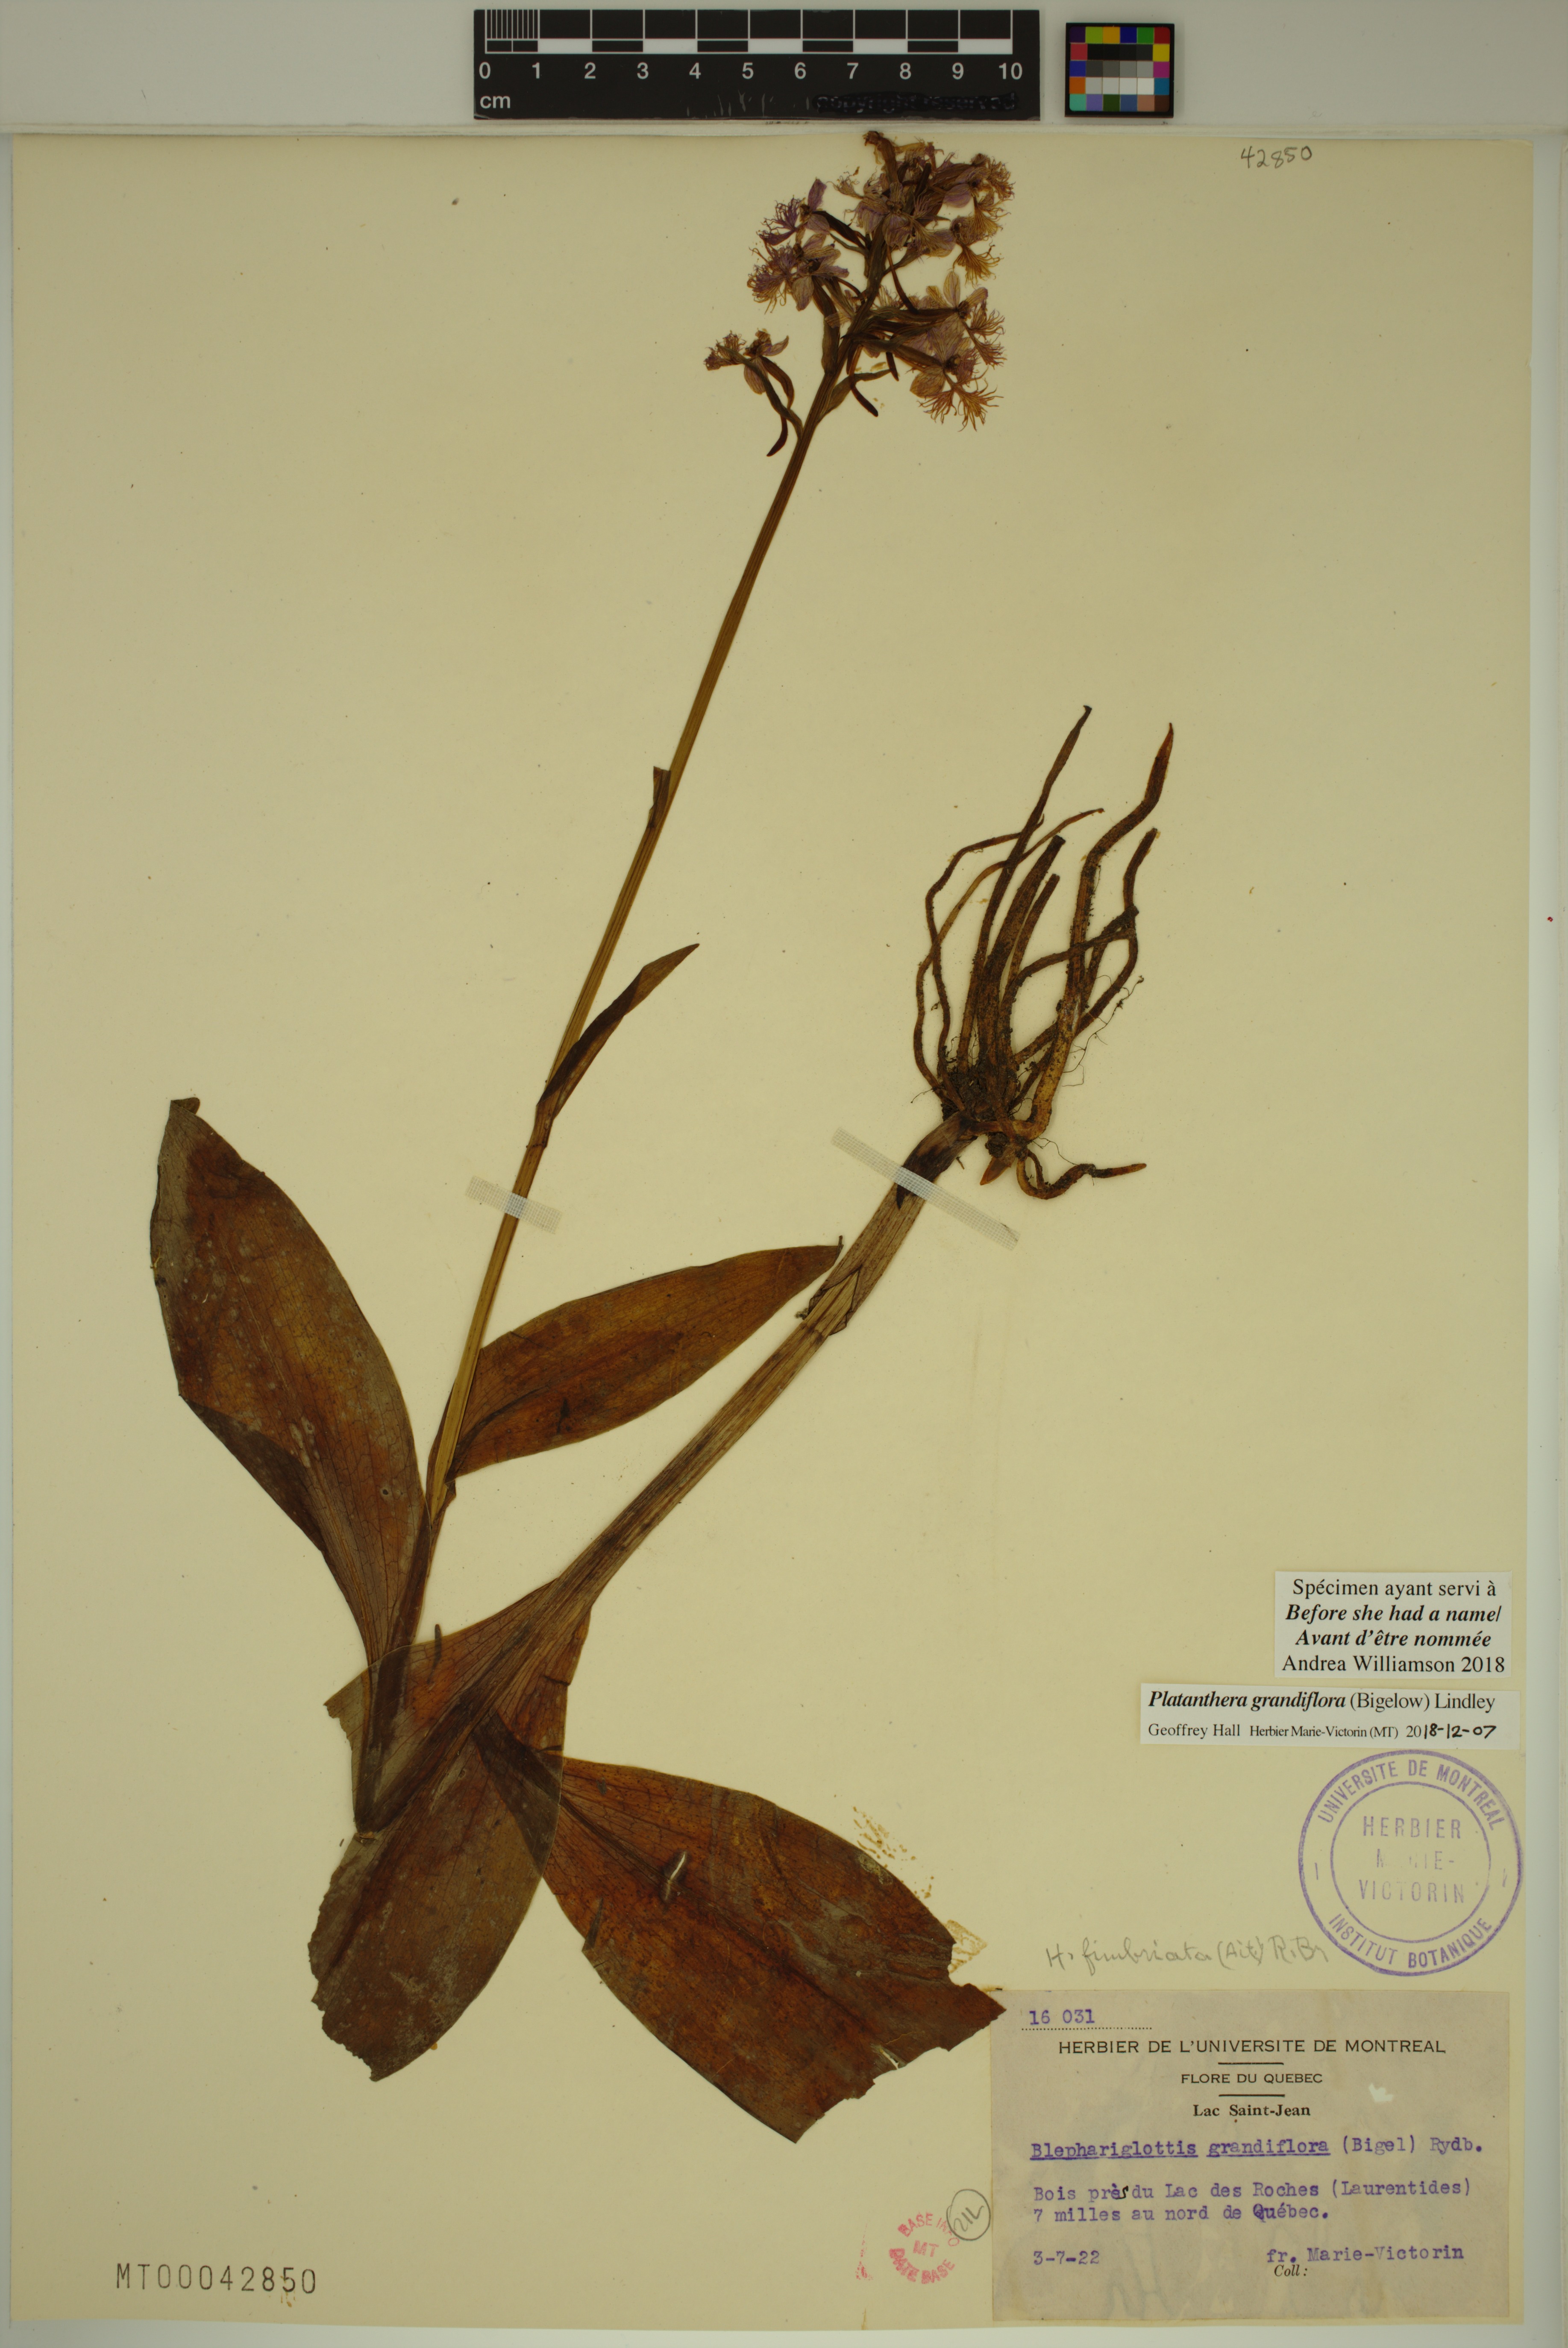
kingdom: Plantae
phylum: Tracheophyta
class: Liliopsida
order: Asparagales
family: Orchidaceae
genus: Platanthera
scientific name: Platanthera grandiflora
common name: Greater purple fringed orchid
